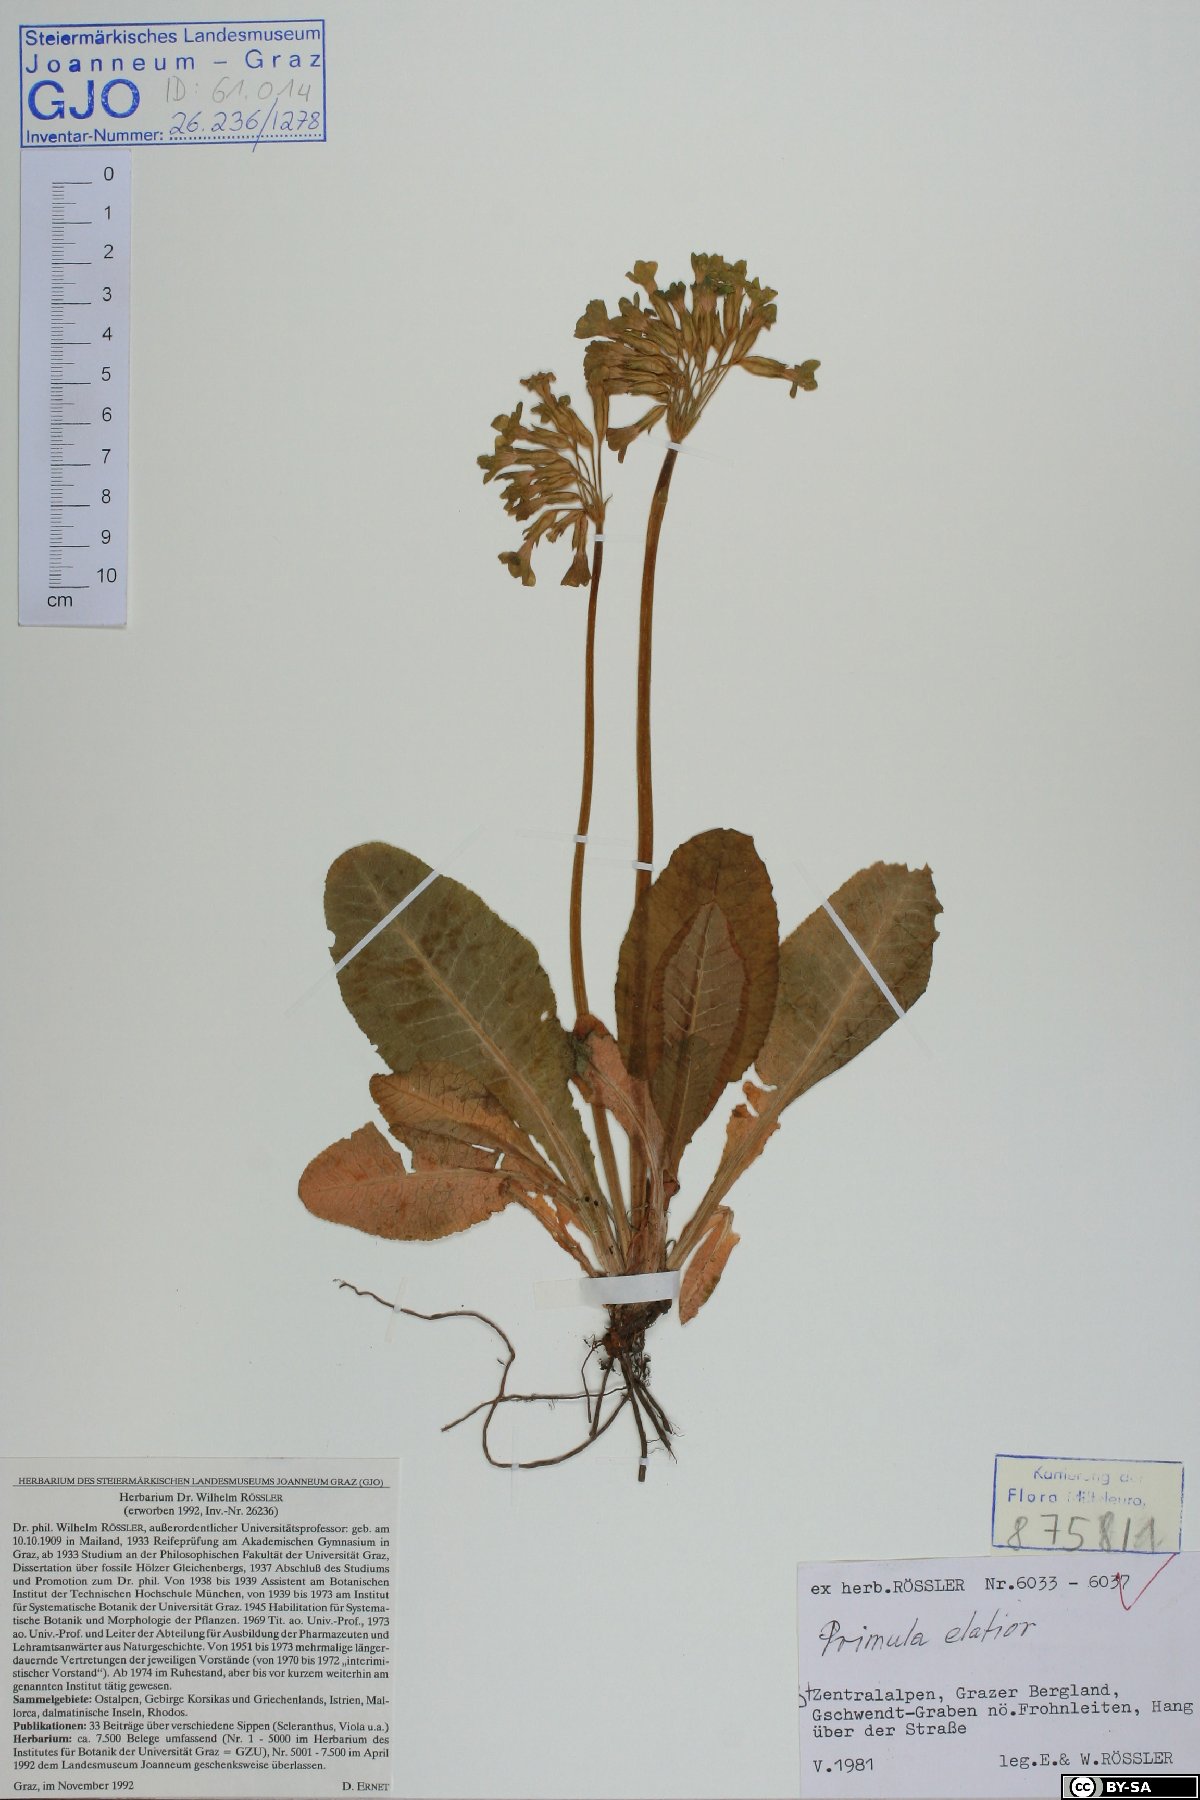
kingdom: Plantae
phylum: Tracheophyta
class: Magnoliopsida
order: Ericales
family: Primulaceae
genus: Primula
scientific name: Primula elatior
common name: Oxlip
